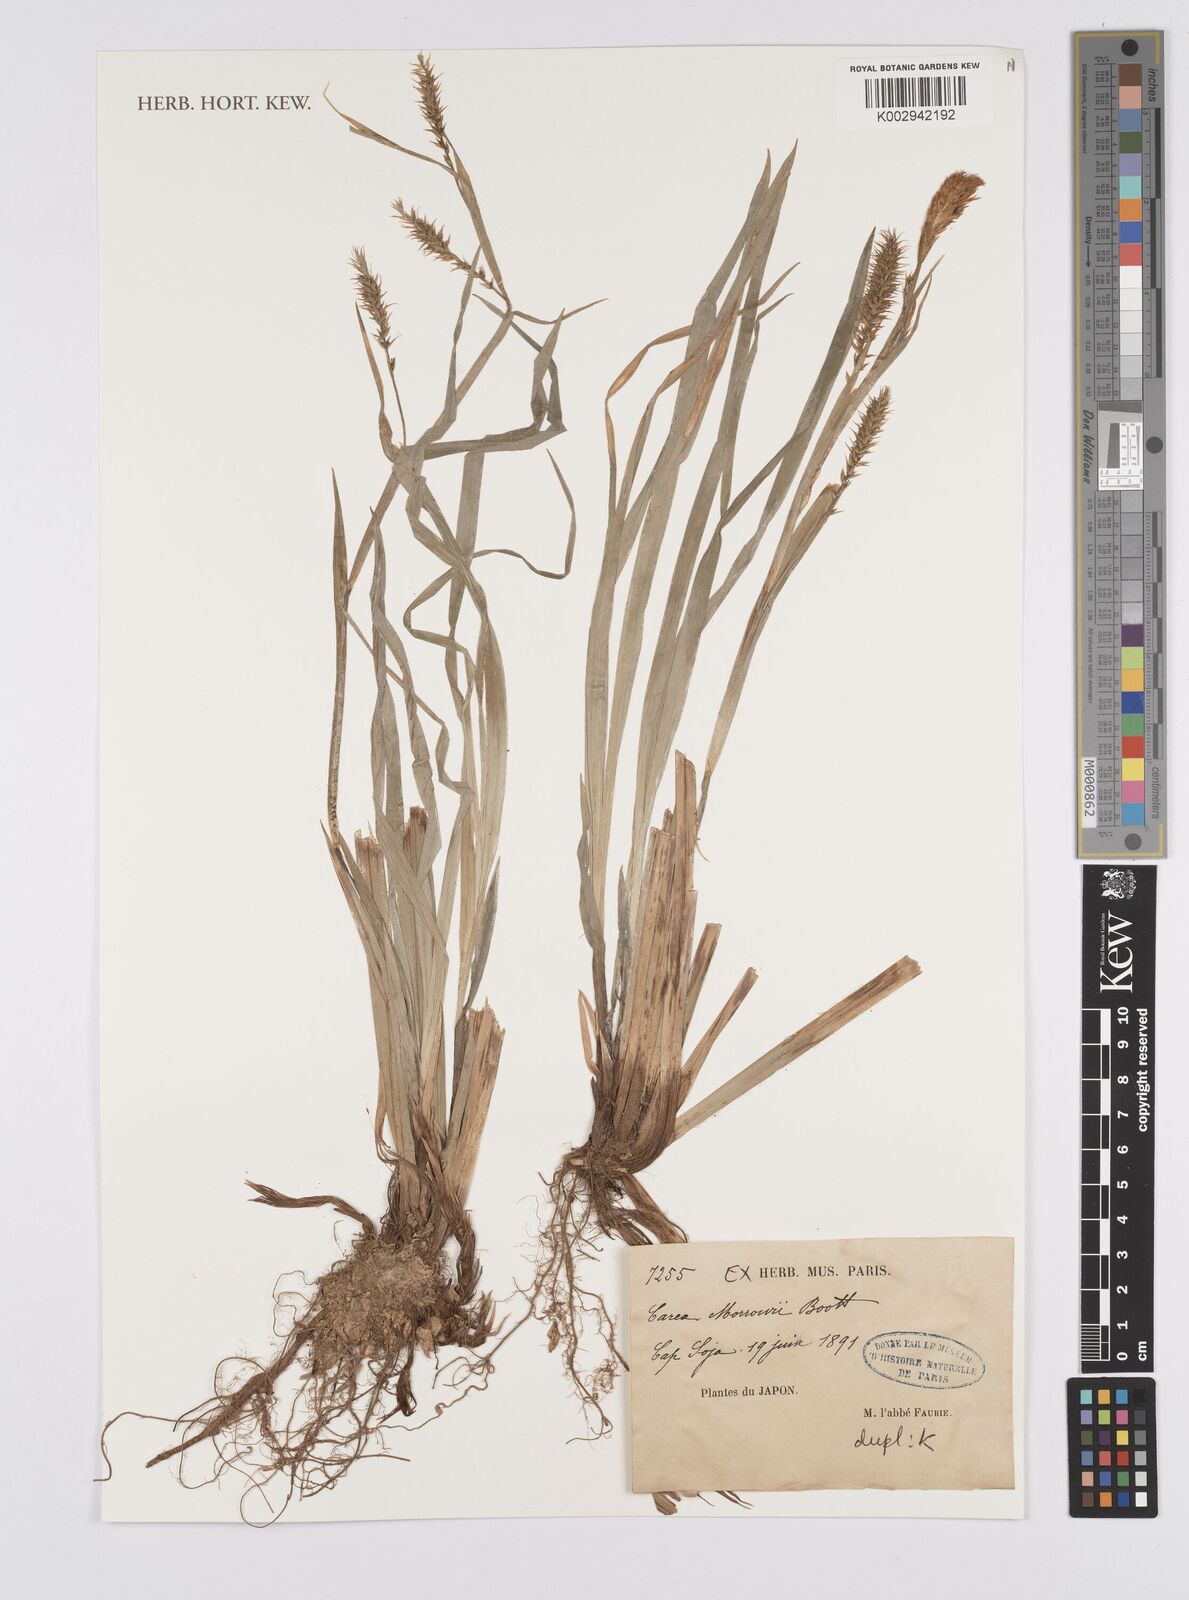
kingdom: Plantae
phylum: Tracheophyta
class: Liliopsida
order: Poales
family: Cyperaceae
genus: Carex
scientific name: Carex morrowii
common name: Japanese sedge
